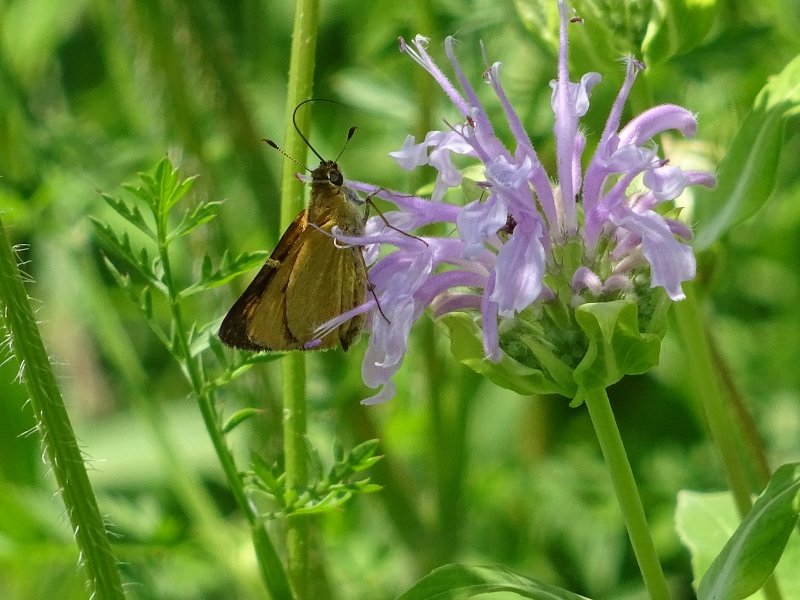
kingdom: Animalia
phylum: Arthropoda
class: Insecta
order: Lepidoptera
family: Hesperiidae
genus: Atrytone
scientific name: Atrytone delaware
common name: Delaware Skipper
